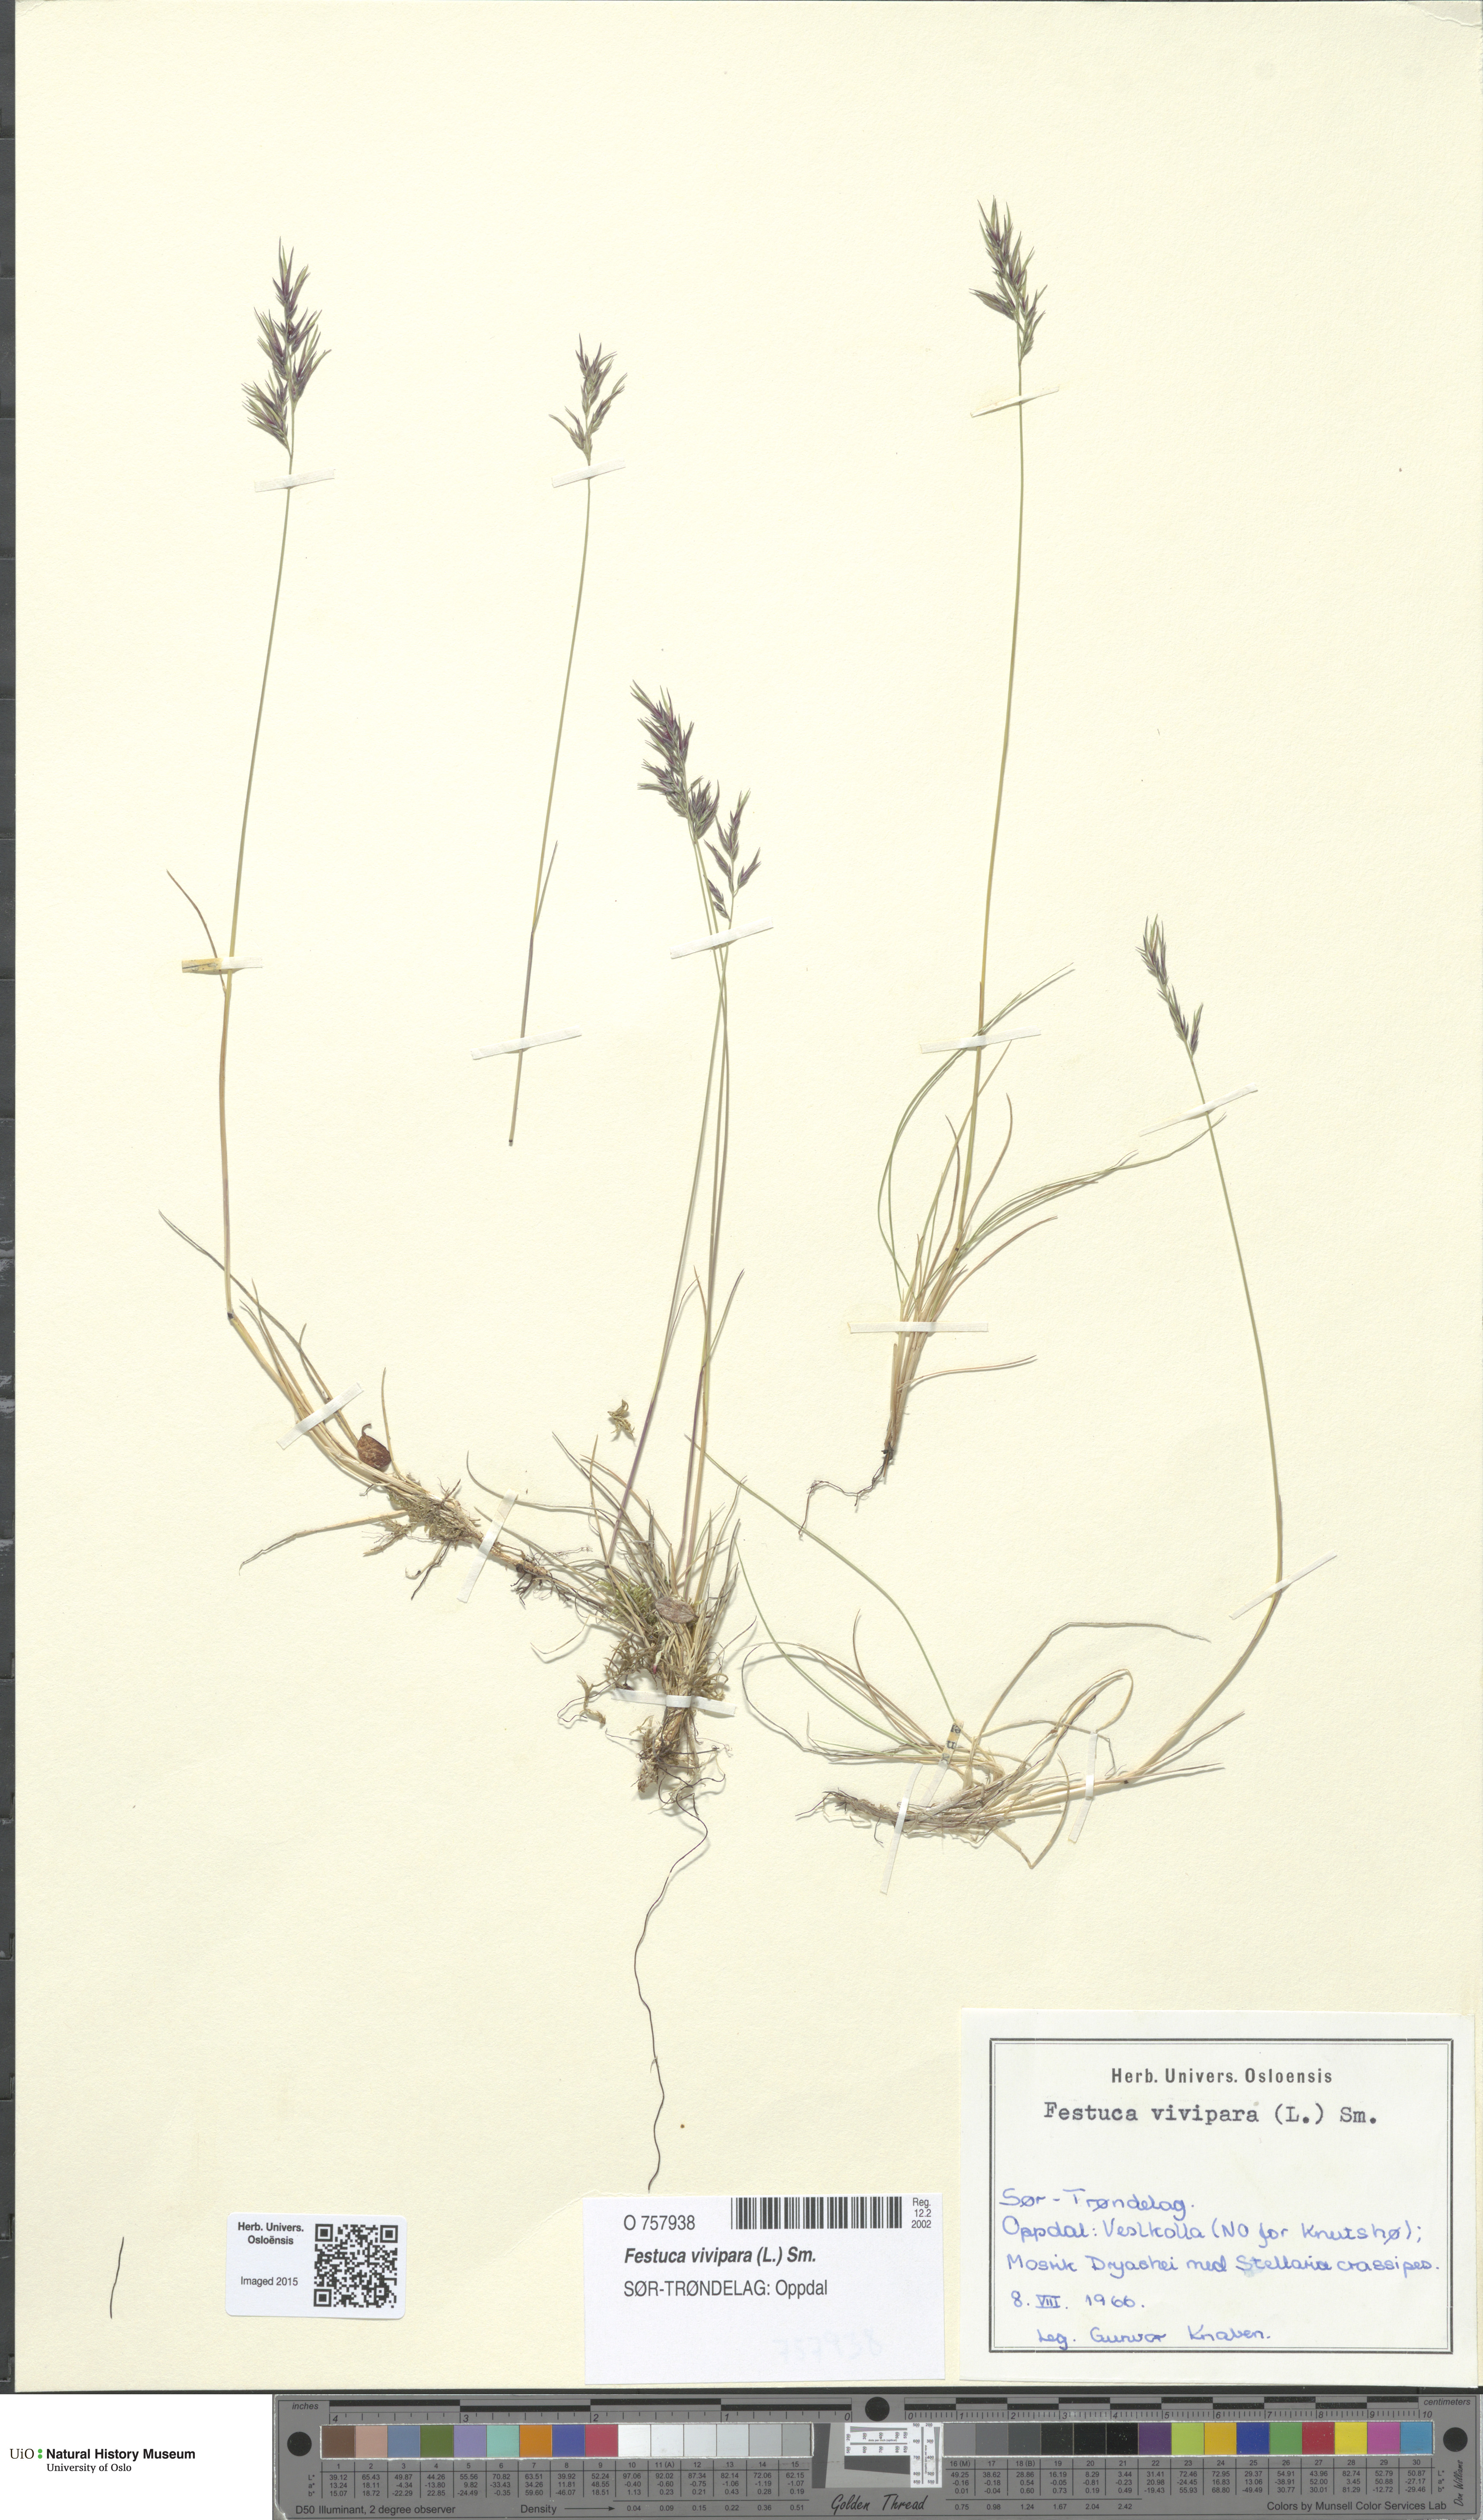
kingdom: Plantae
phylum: Tracheophyta
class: Liliopsida
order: Poales
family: Poaceae
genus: Festuca
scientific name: Festuca vivipara
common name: Viviparous sheep's-fescue
